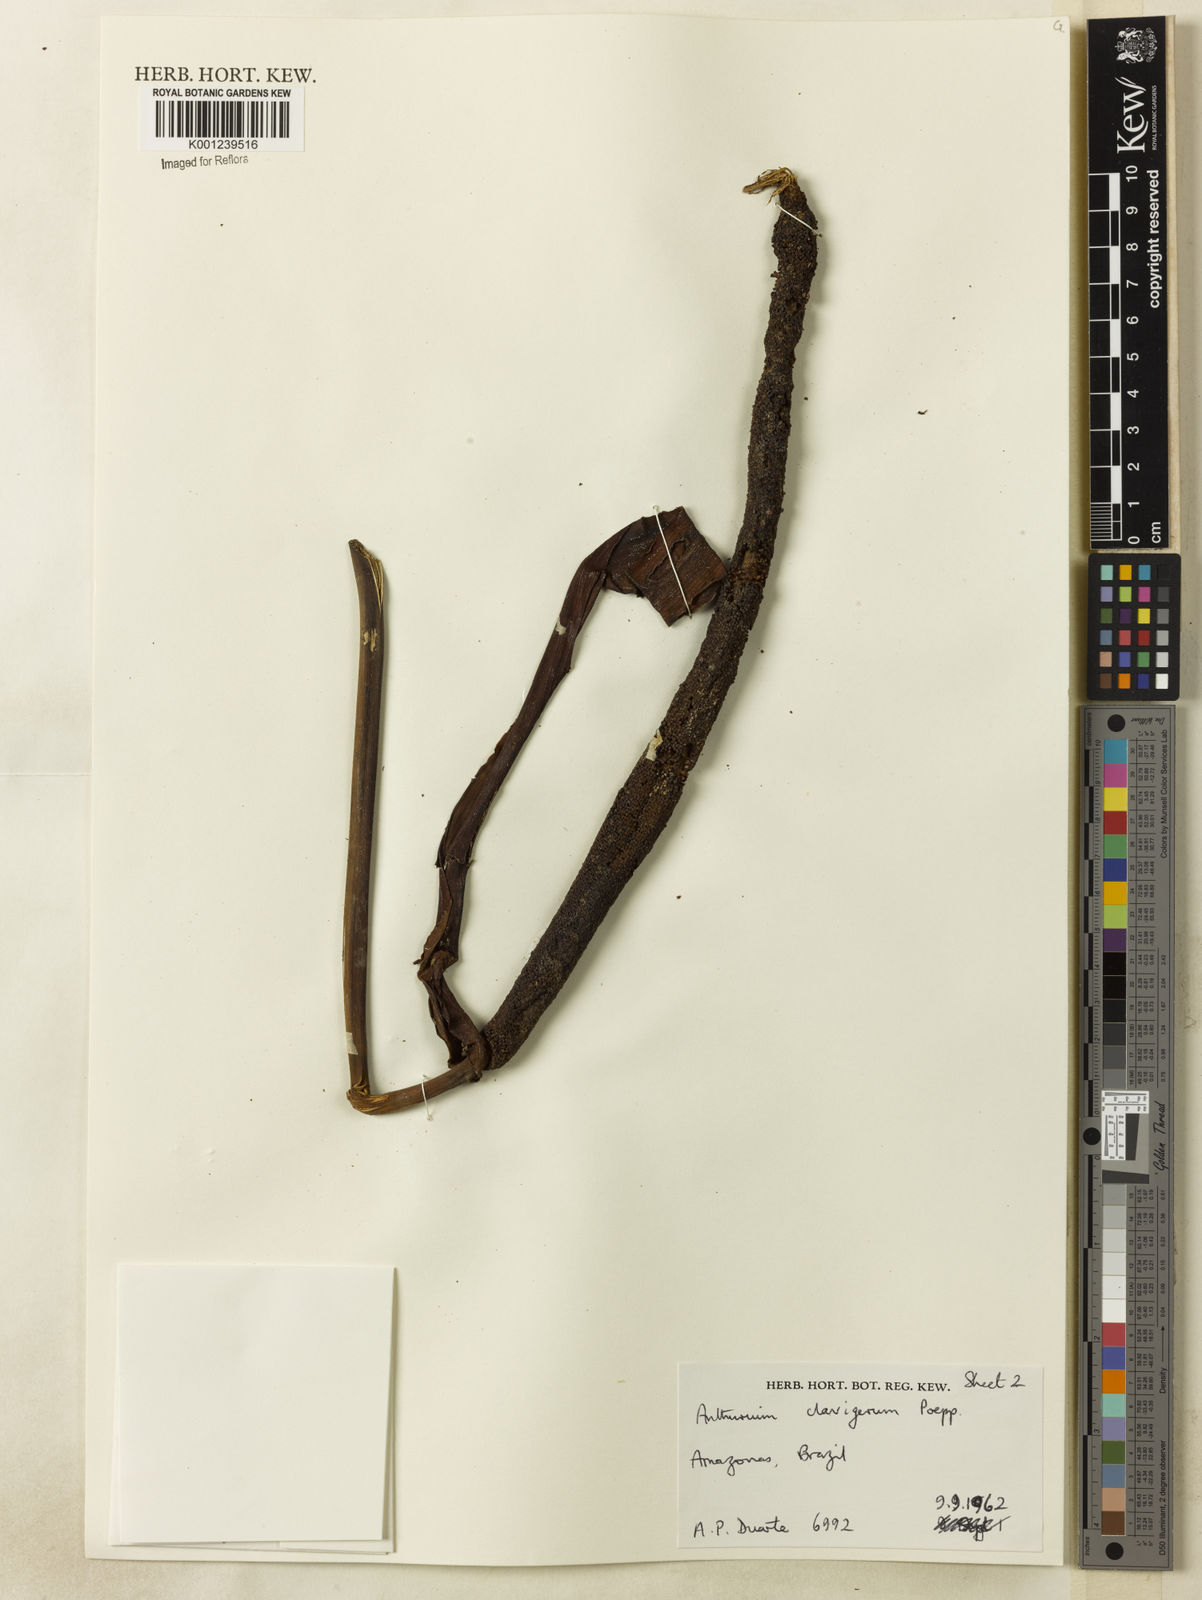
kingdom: Plantae
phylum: Tracheophyta
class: Liliopsida
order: Alismatales
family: Araceae
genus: Anthurium
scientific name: Anthurium clavigerum
